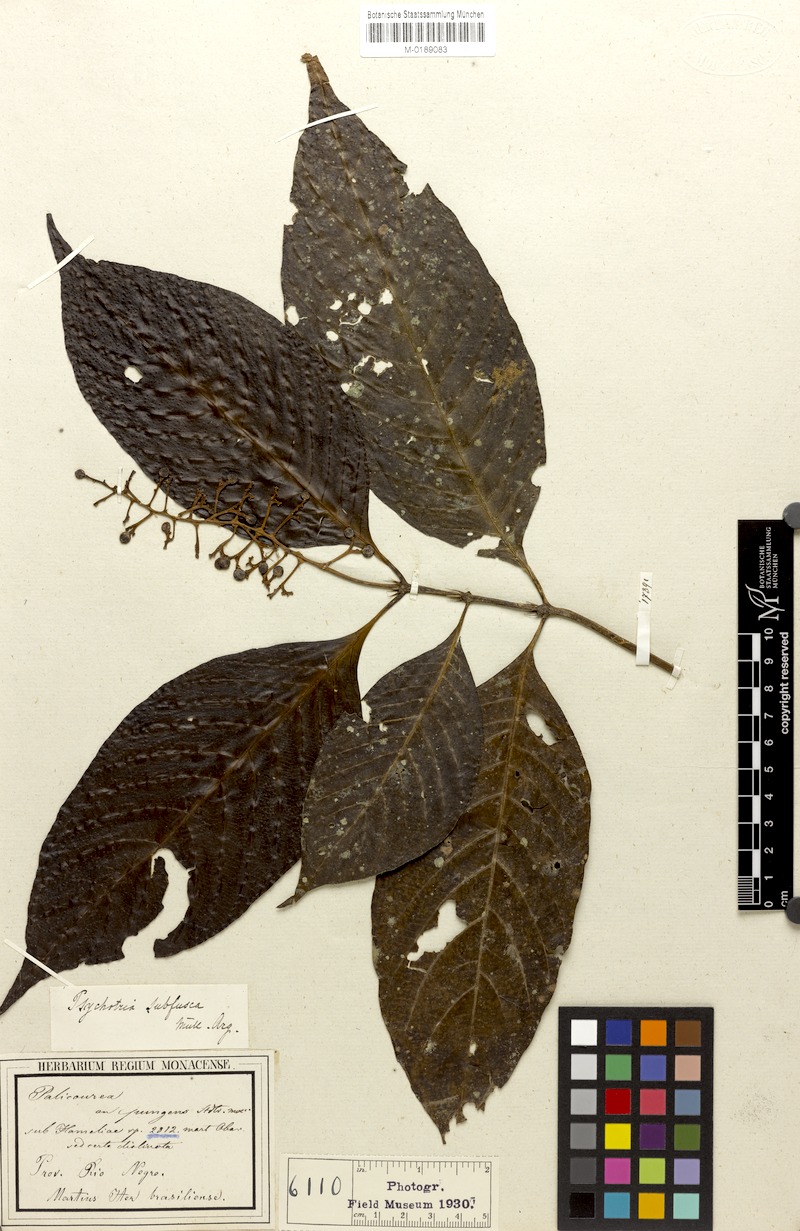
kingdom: Plantae
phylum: Tracheophyta
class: Magnoliopsida
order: Gentianales
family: Rubiaceae
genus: Palicourea
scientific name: Palicourea subfusca
